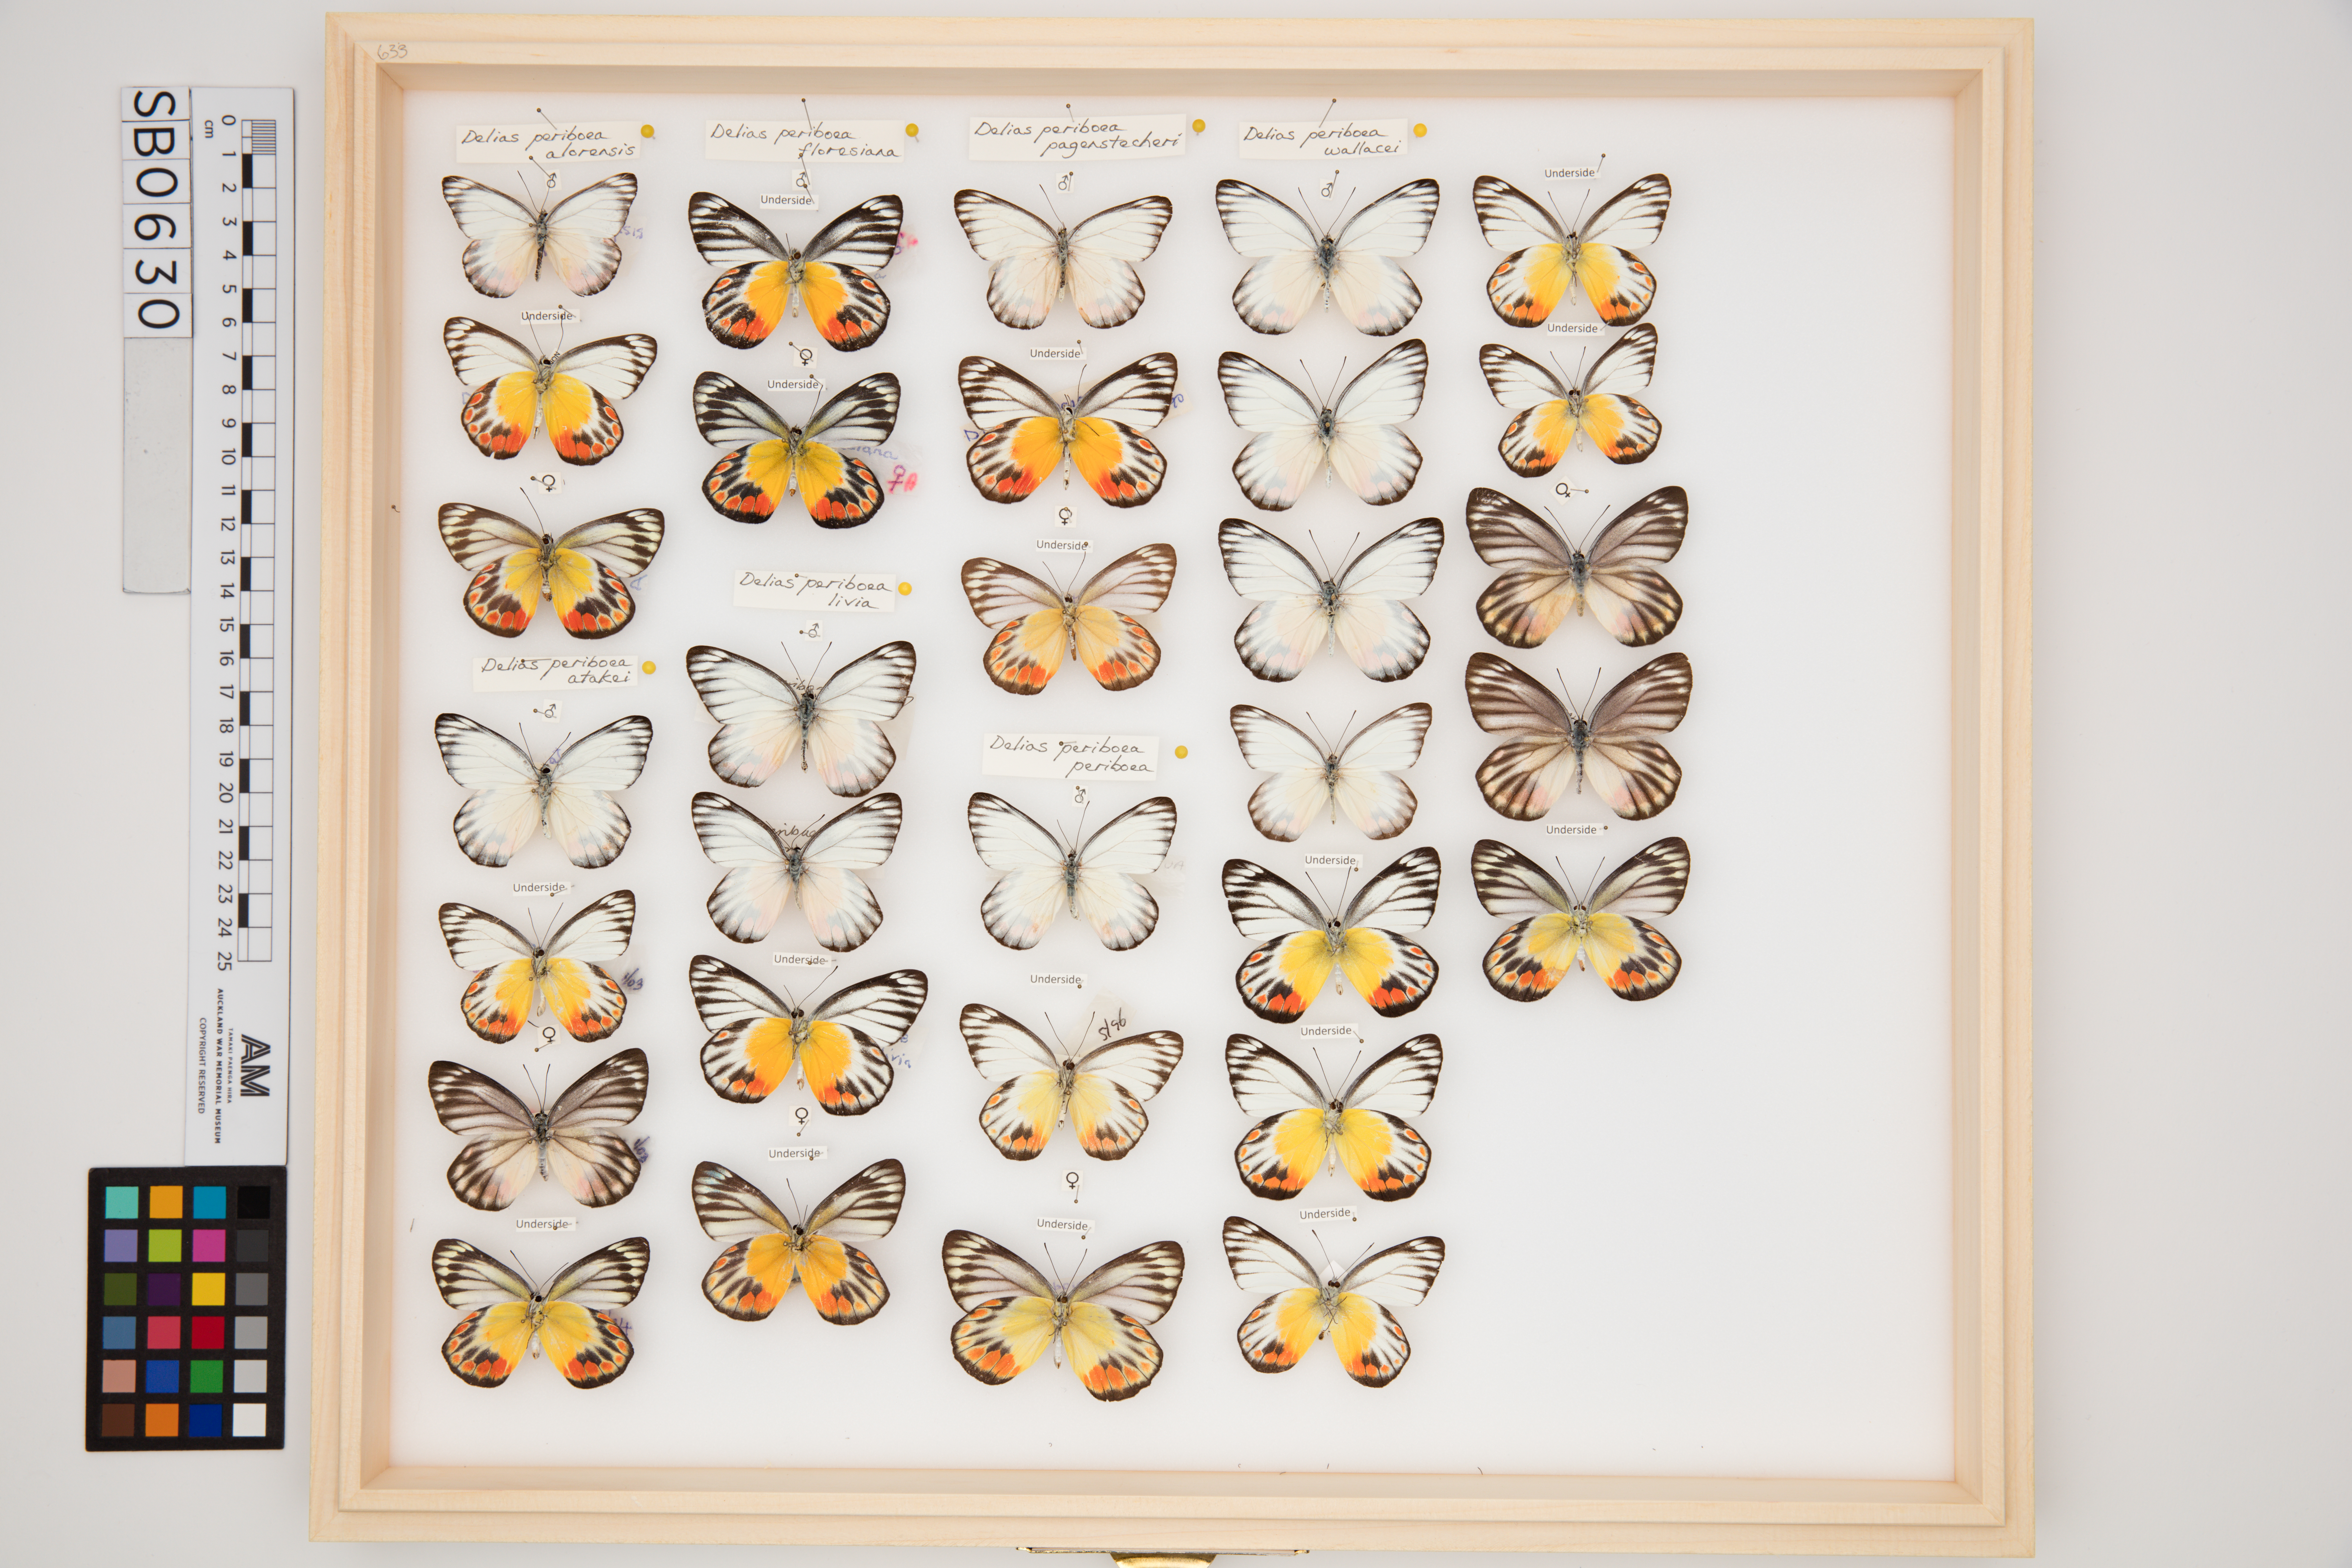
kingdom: Animalia
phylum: Arthropoda
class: Insecta
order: Lepidoptera
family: Pieridae
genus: Delias
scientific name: Delias periboea
